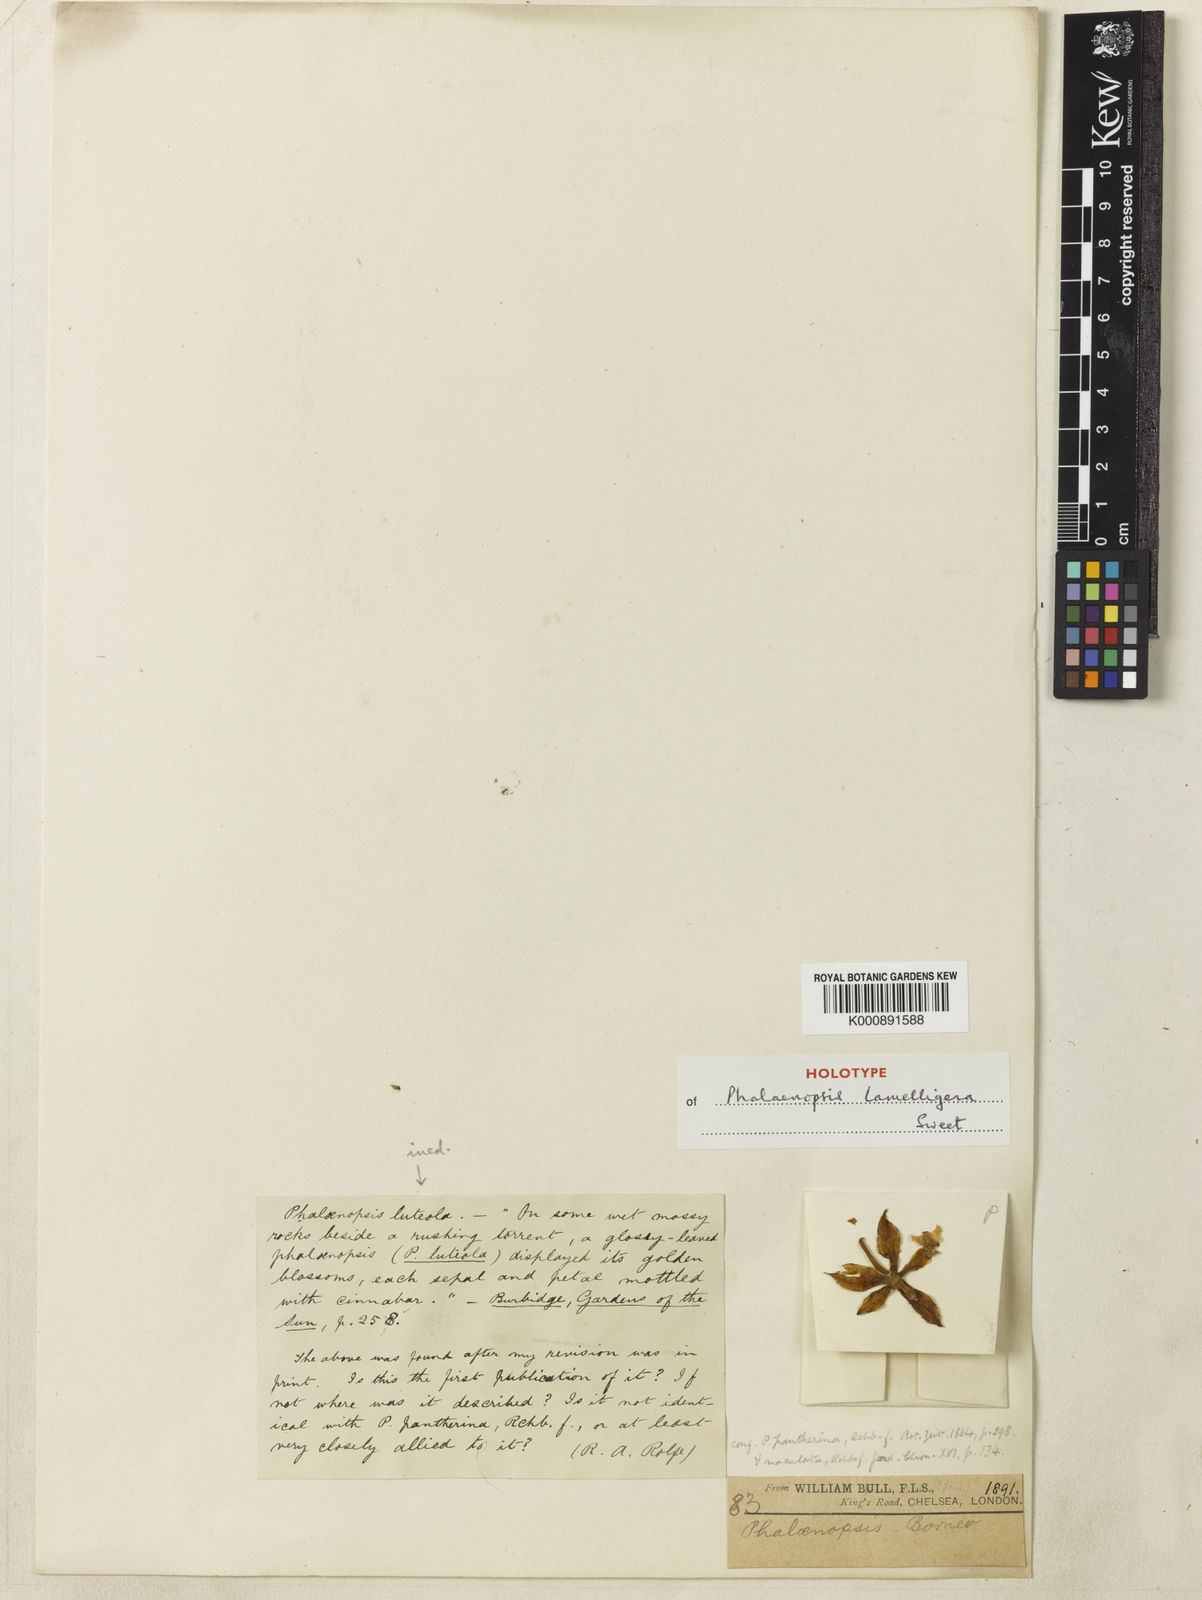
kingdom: Plantae
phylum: Tracheophyta
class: Liliopsida
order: Asparagales
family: Orchidaceae
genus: Phalaenopsis
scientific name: Phalaenopsis cornu-cervi
